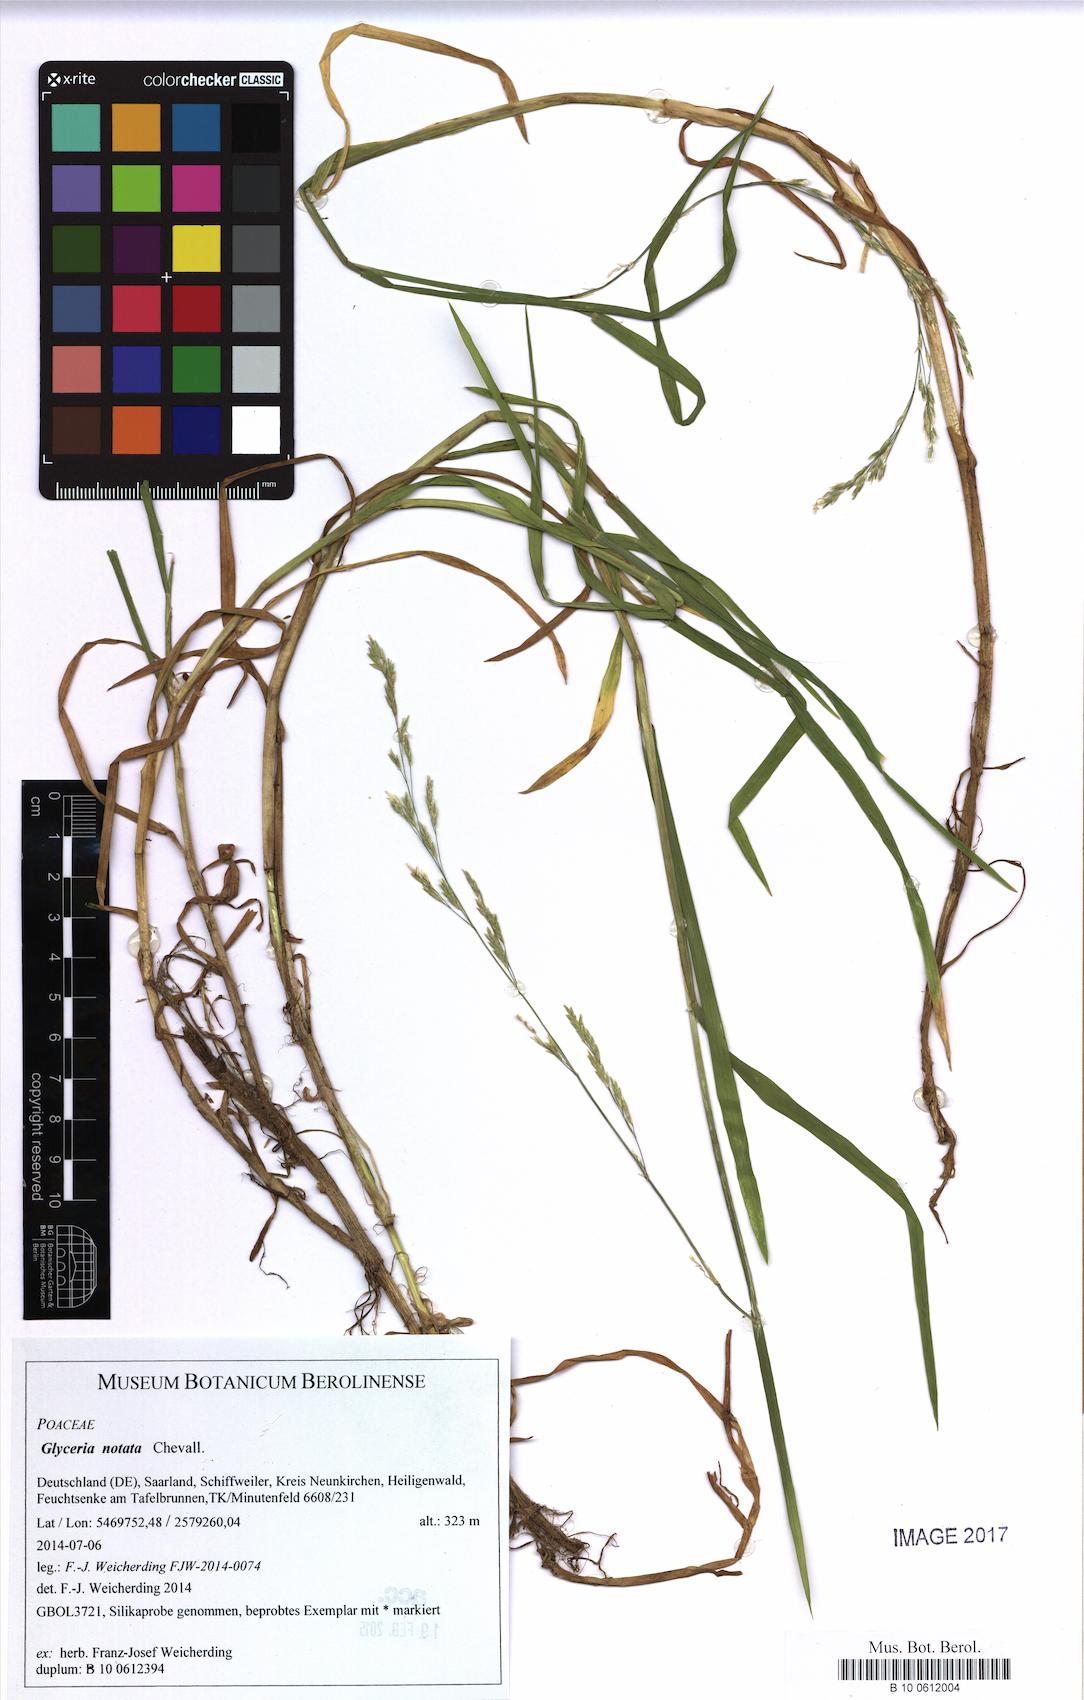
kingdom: Plantae
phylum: Tracheophyta
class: Liliopsida
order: Poales
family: Poaceae
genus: Glyceria
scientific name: Glyceria notata
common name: Plicate sweet-grass
